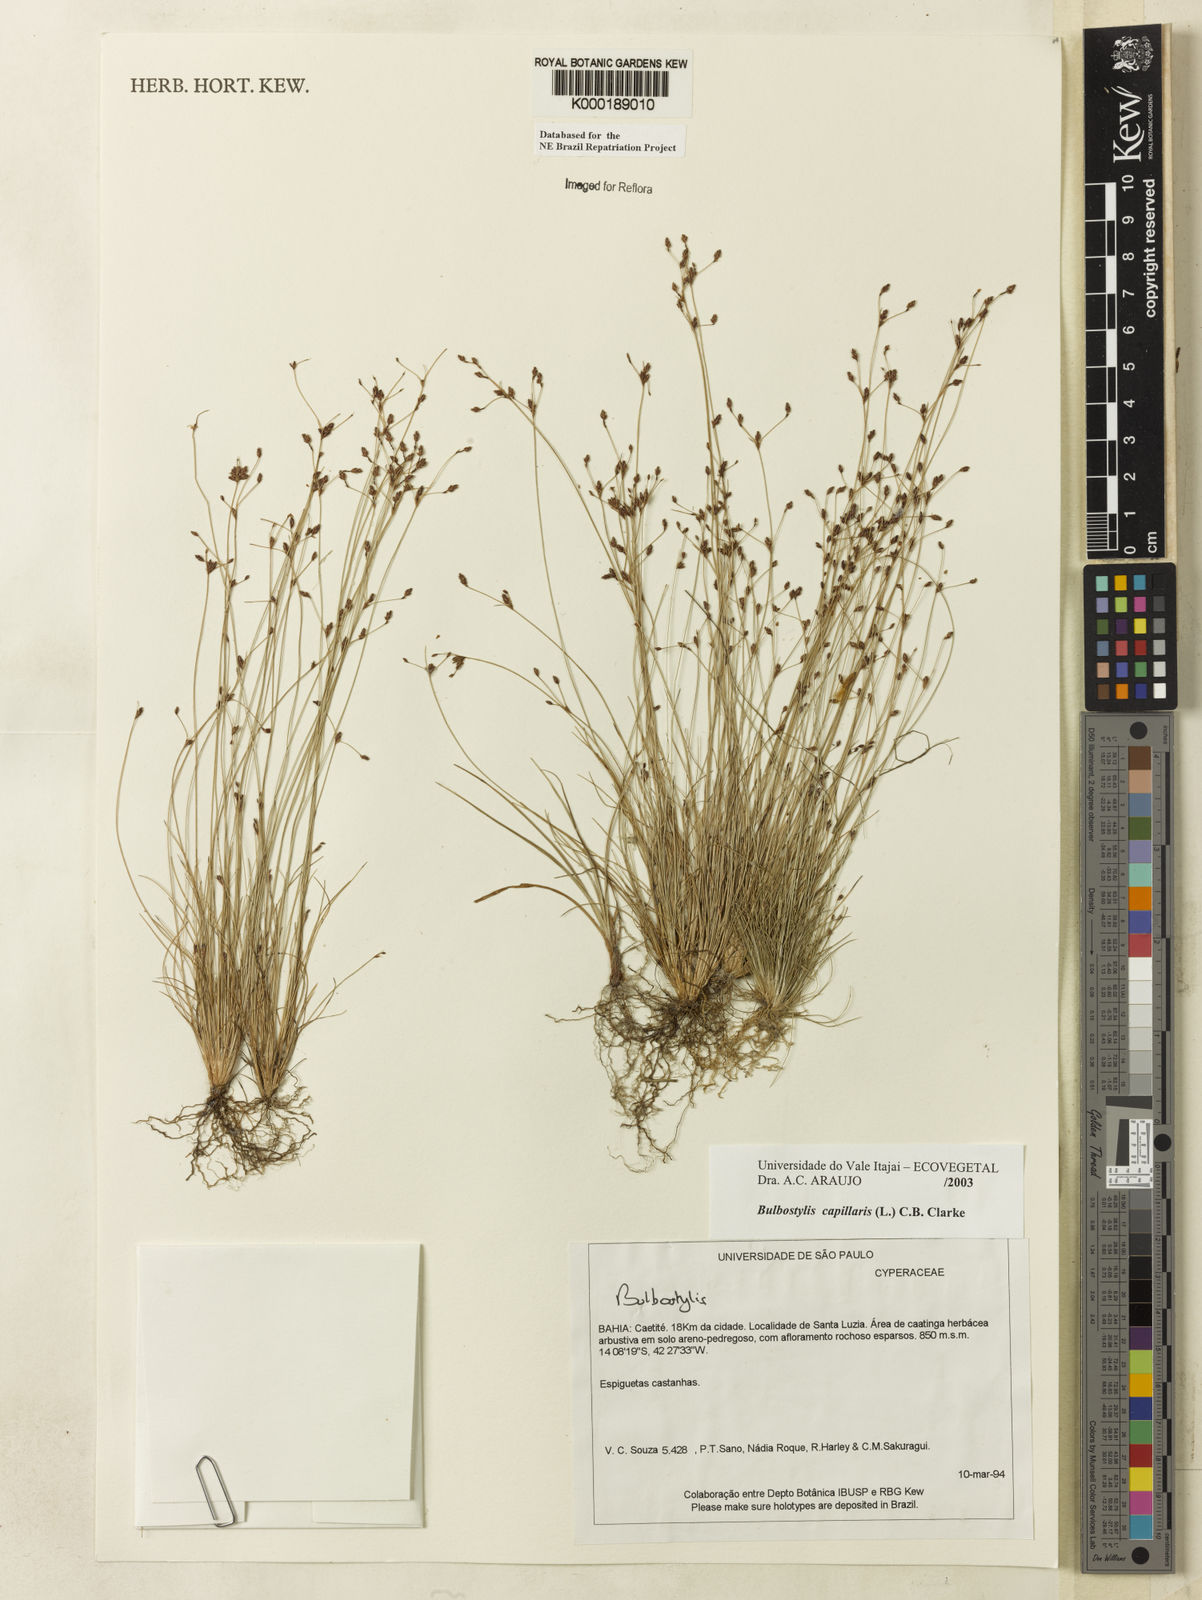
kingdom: Plantae
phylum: Tracheophyta
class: Liliopsida
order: Poales
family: Cyperaceae
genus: Bulbostylis
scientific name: Bulbostylis capillaris
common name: Densetuft hairsedge
